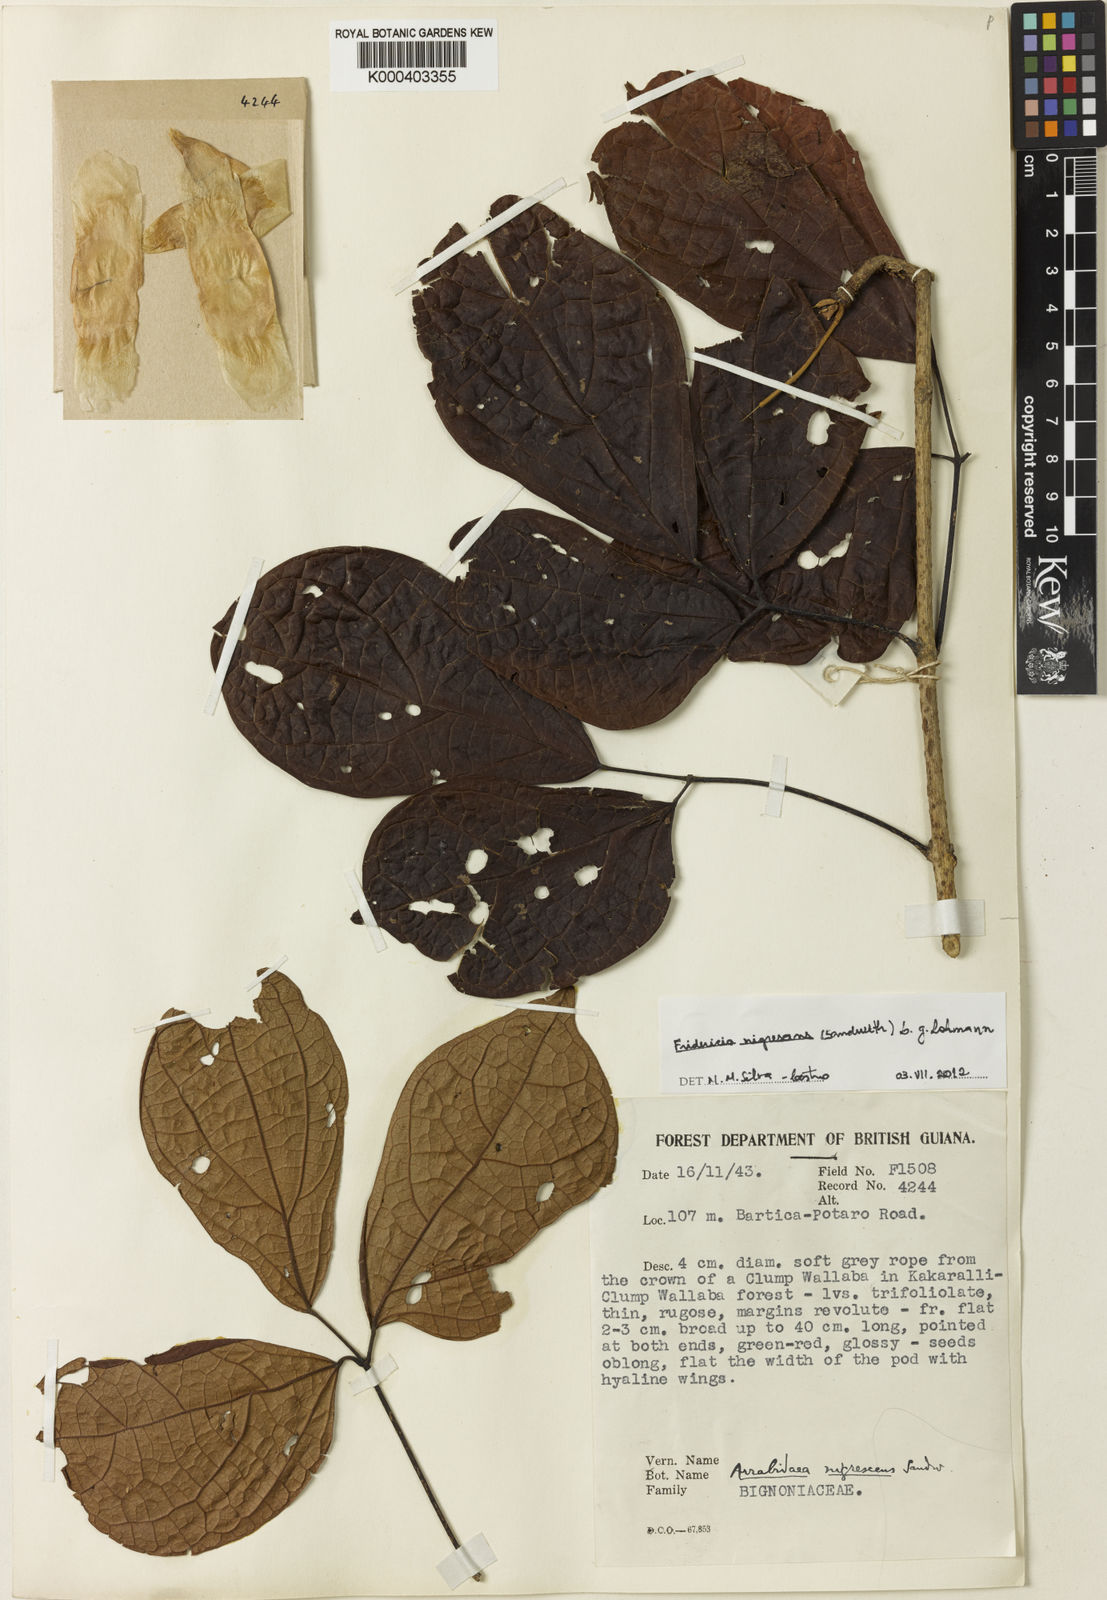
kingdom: Plantae
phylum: Tracheophyta
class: Magnoliopsida
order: Lamiales
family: Bignoniaceae
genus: Fridericia
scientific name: Fridericia nigrescens
